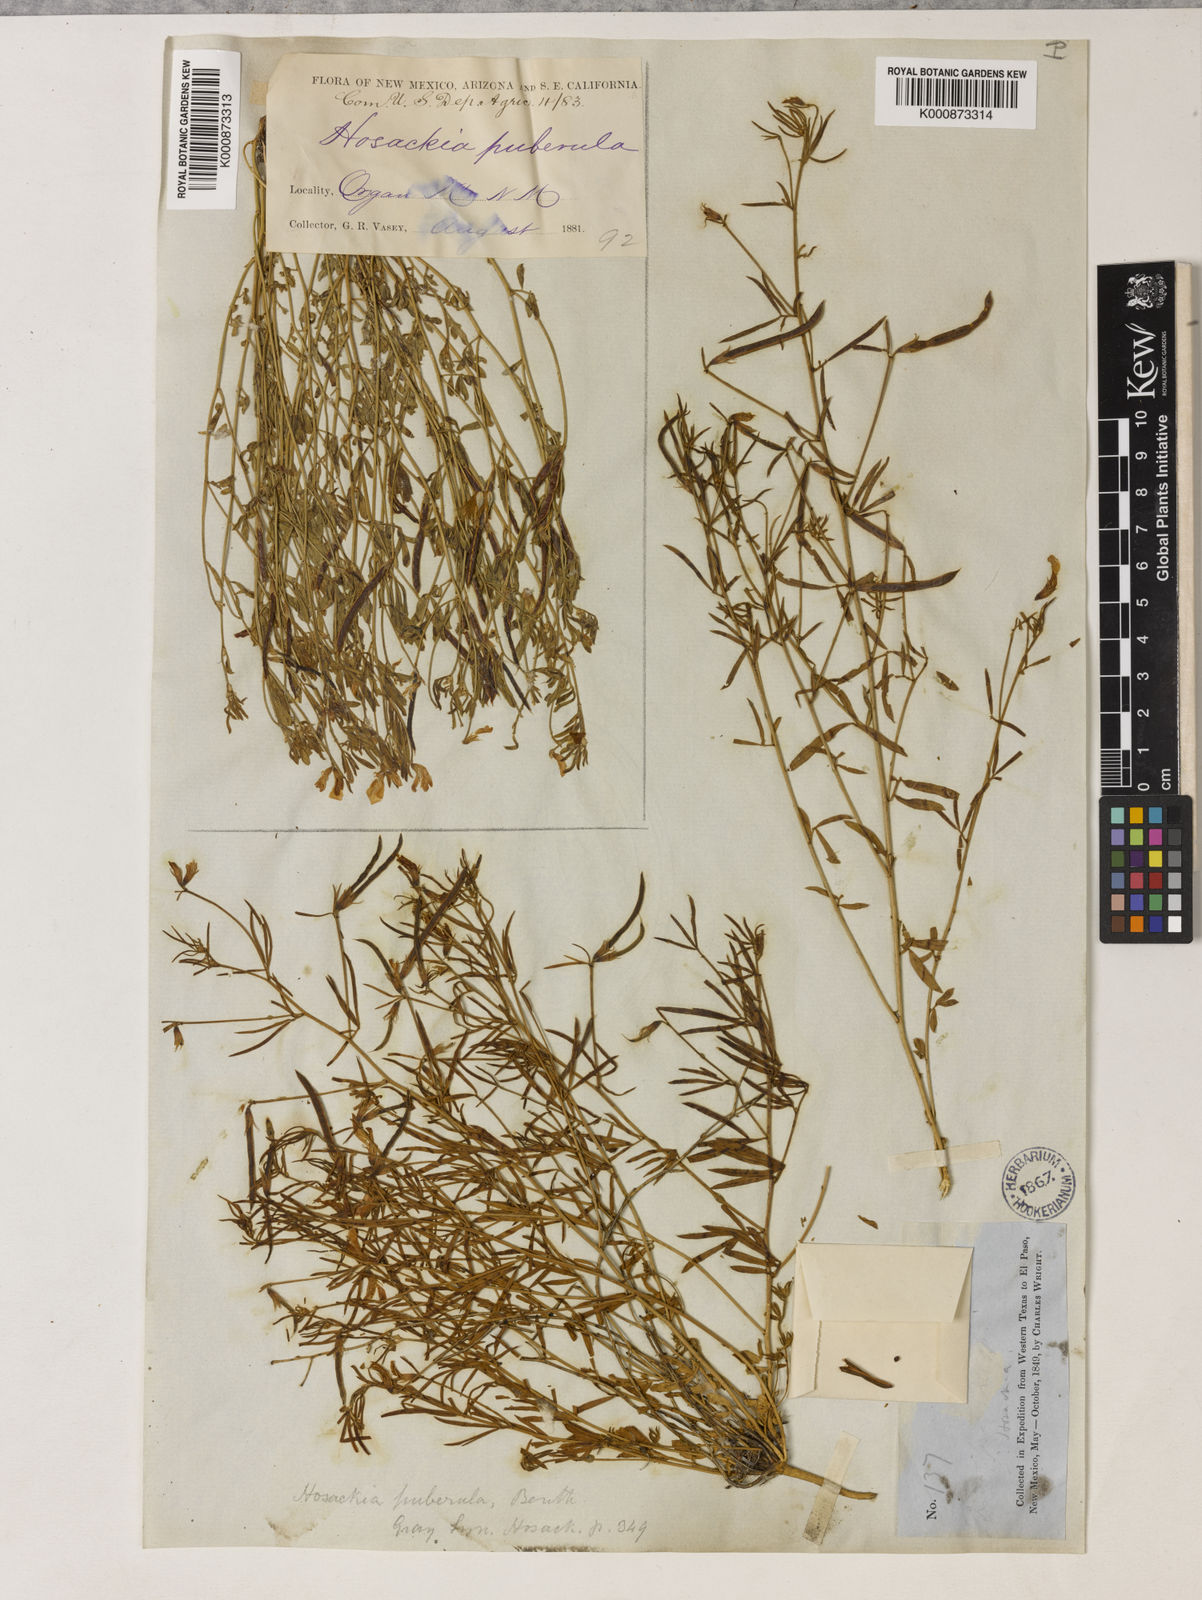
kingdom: Plantae
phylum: Tracheophyta
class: Magnoliopsida
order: Fabales
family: Fabaceae
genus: Acmispon
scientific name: Acmispon oroboides
